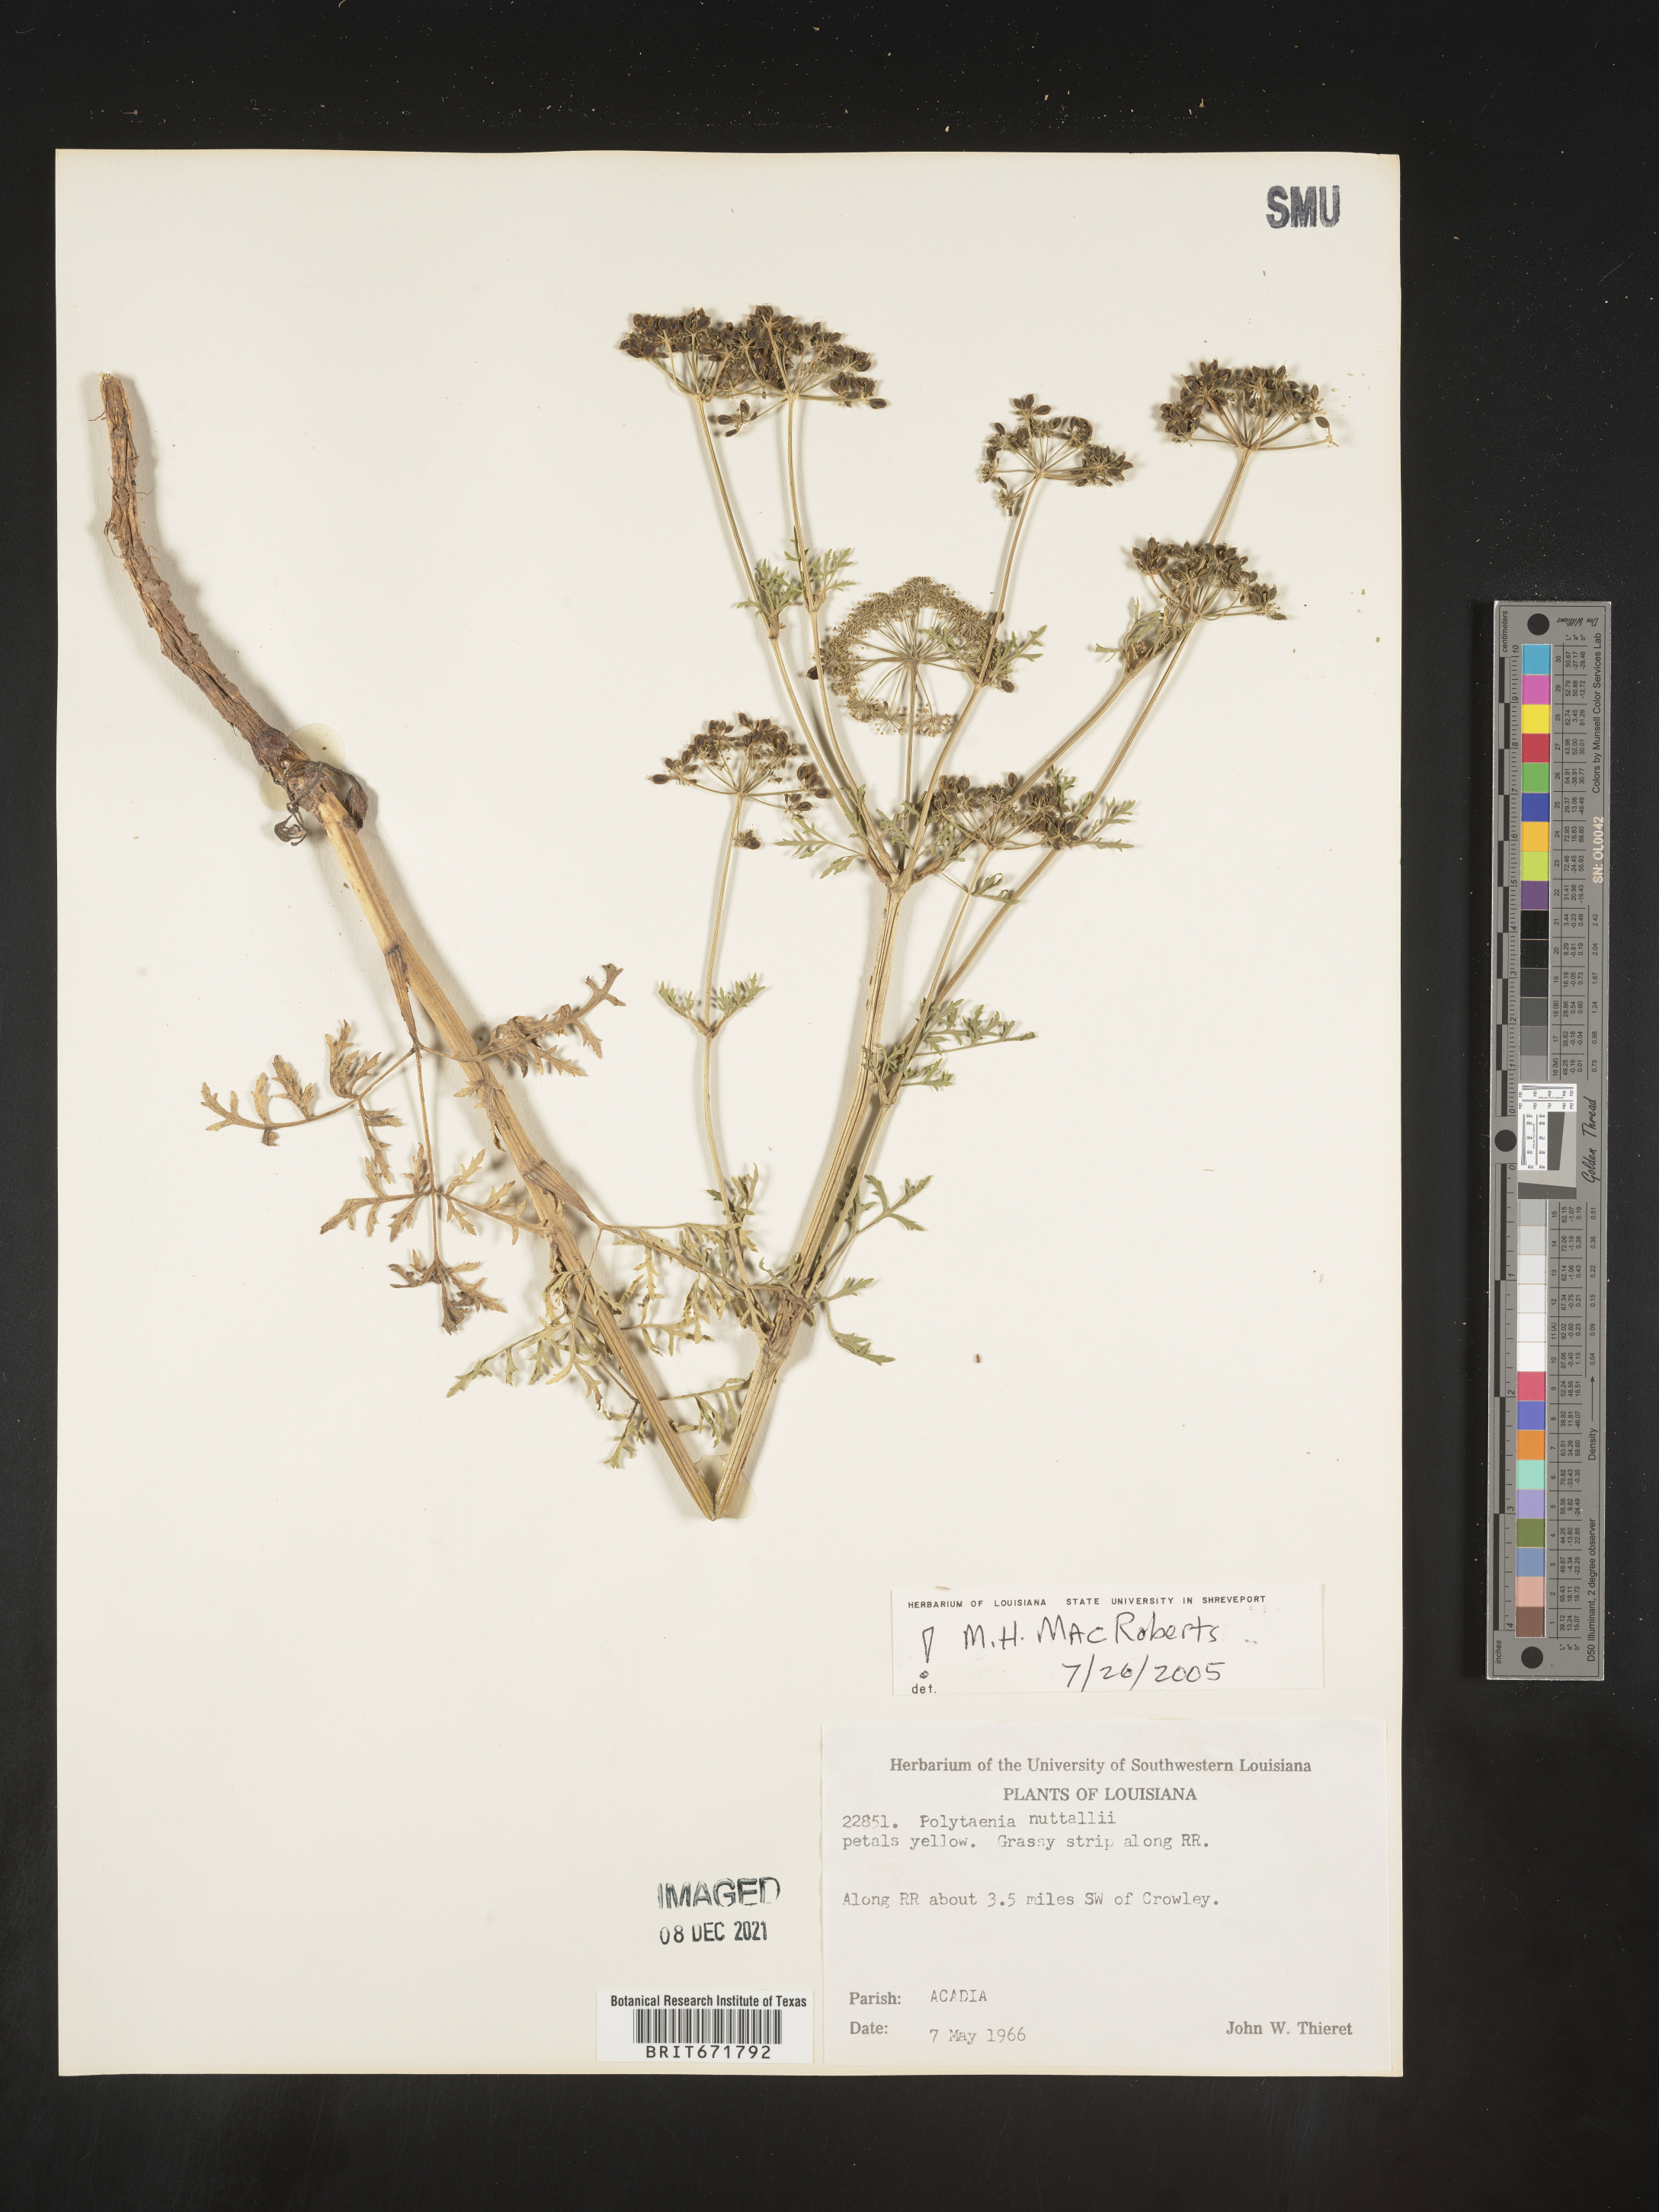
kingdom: Plantae
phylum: Tracheophyta
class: Magnoliopsida
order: Apiales
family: Apiaceae
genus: Polytaenia
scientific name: Polytaenia nuttallii
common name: Prairie-parsley
